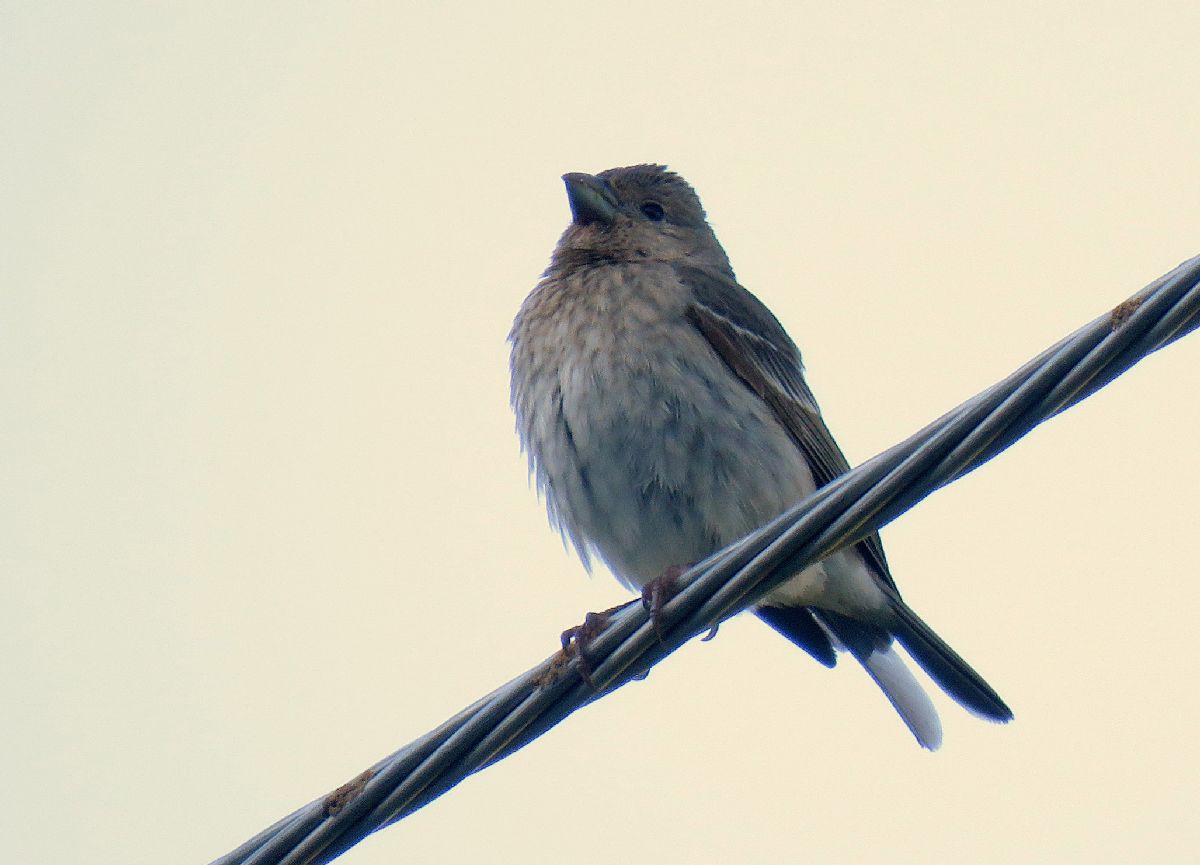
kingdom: Animalia
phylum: Chordata
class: Aves
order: Passeriformes
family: Passeridae
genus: Petronia
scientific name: Petronia petronia
